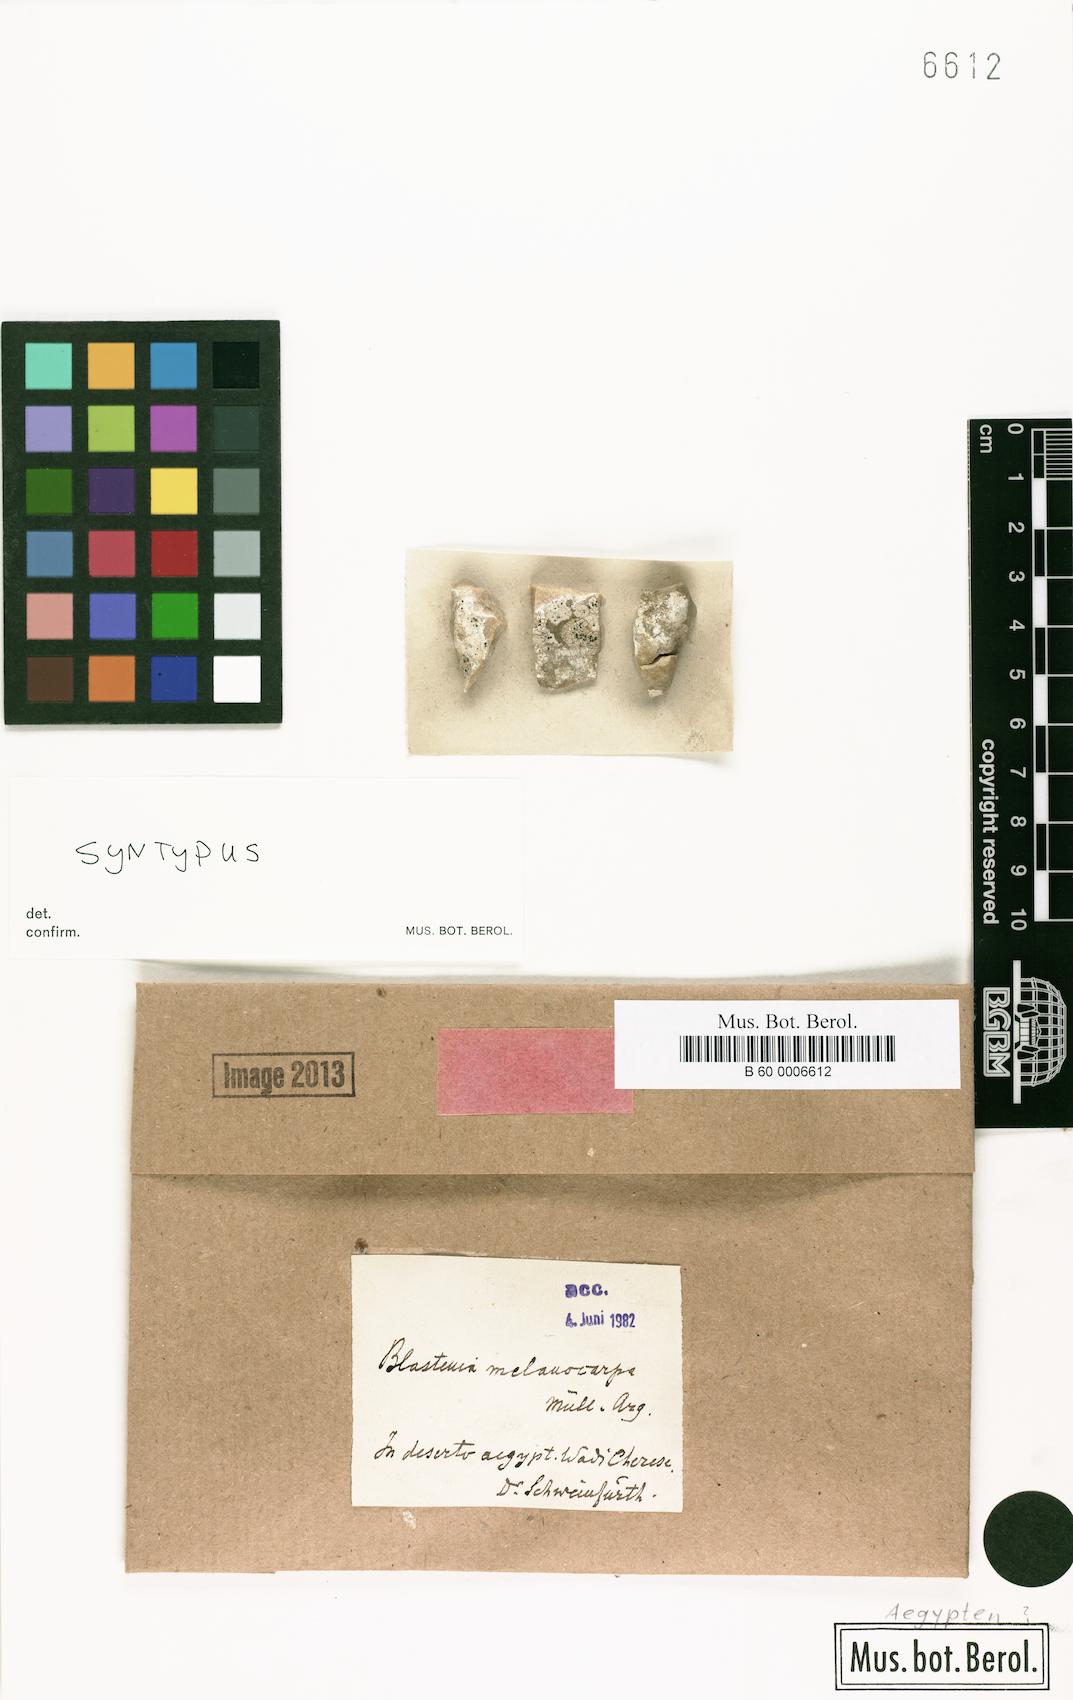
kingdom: Fungi
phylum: Ascomycota
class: Lecanoromycetes
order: Teloschistales
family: Teloschistaceae
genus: Blastenia
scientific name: Blastenia
